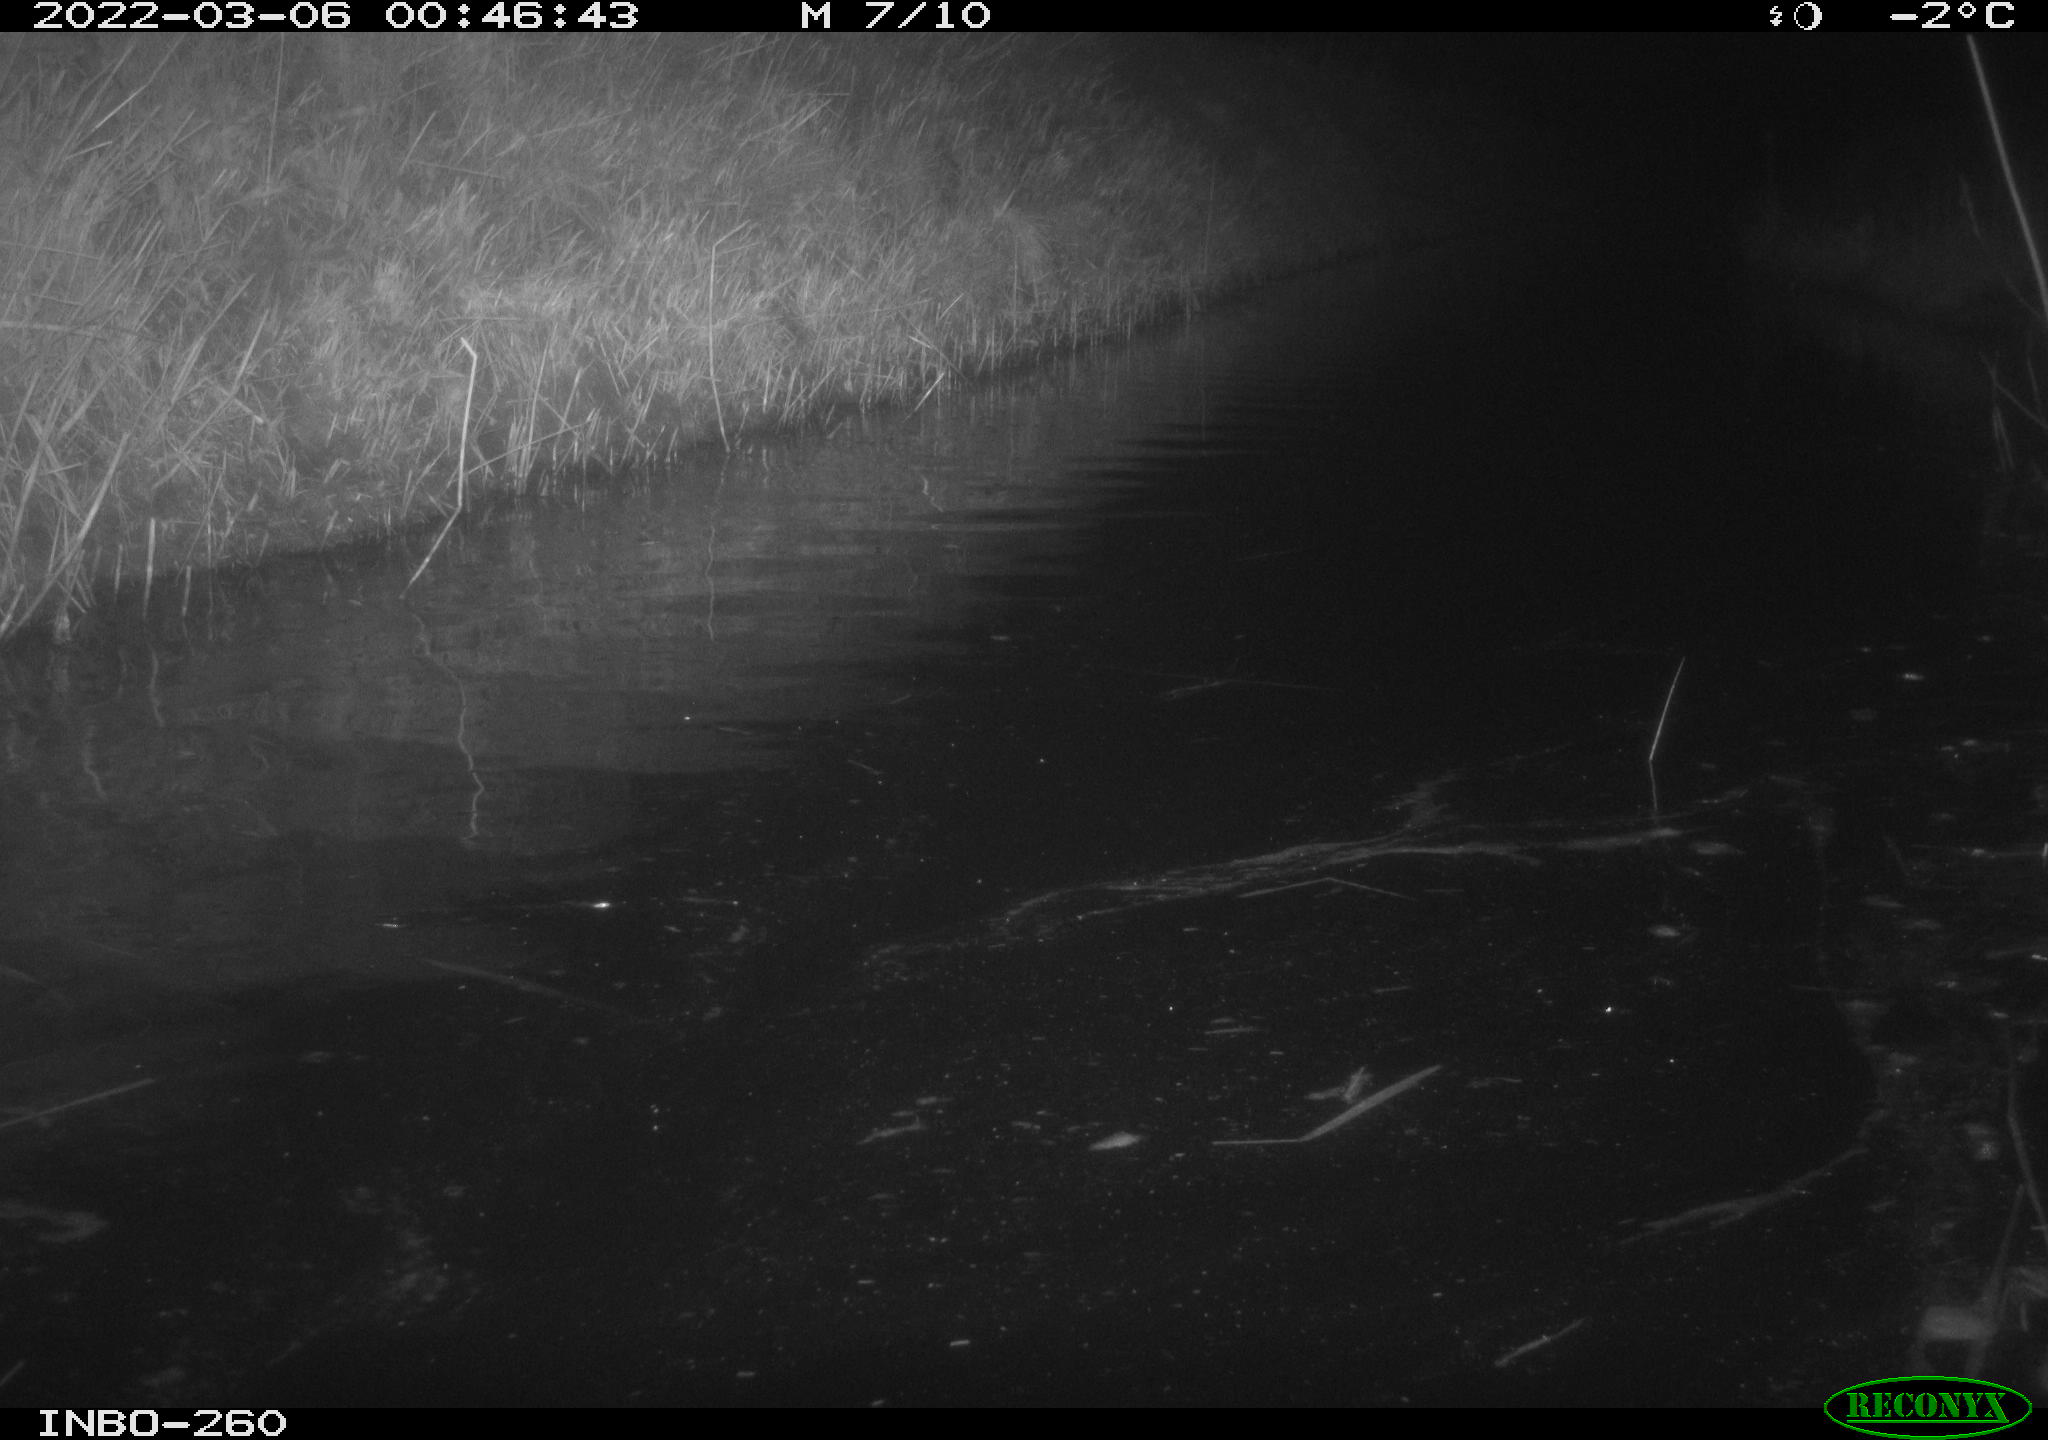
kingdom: Animalia
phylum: Chordata
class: Mammalia
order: Rodentia
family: Cricetidae
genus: Ondatra
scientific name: Ondatra zibethicus
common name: Muskrat
